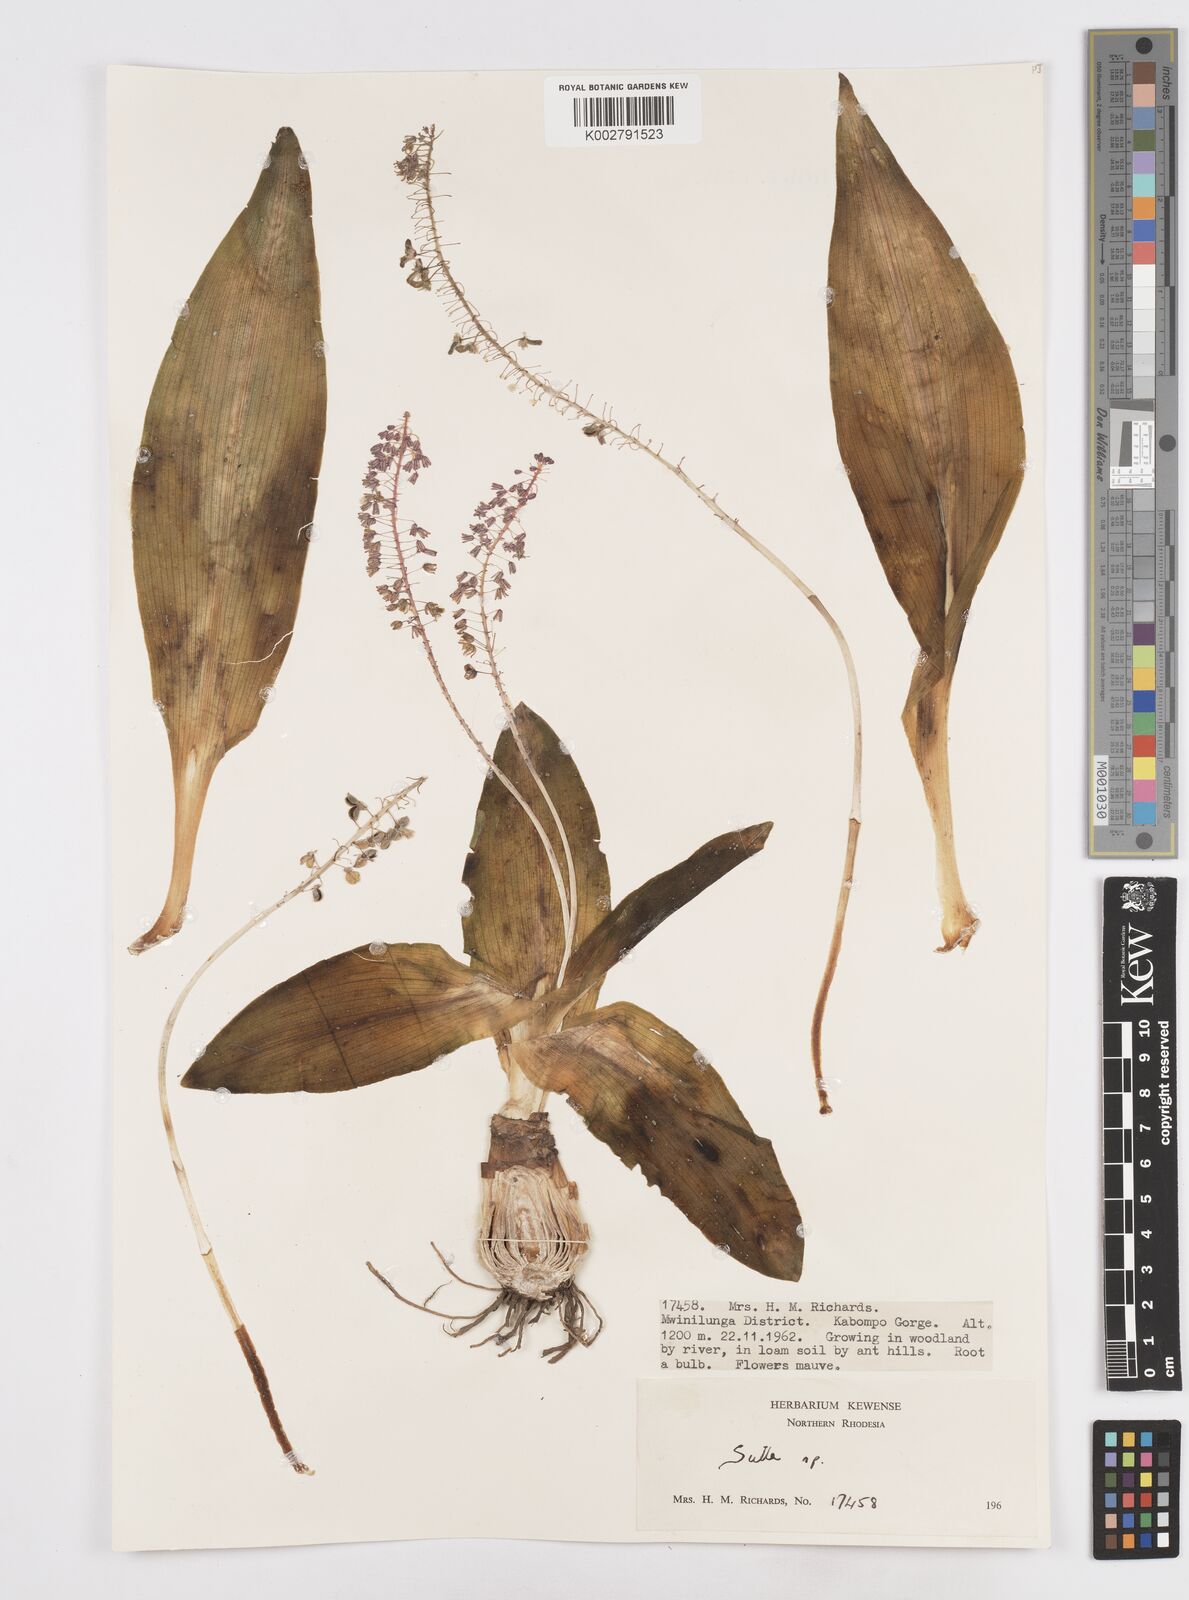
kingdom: Plantae
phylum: Tracheophyta
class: Liliopsida
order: Asparagales
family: Asparagaceae
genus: Scilla
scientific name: Scilla
